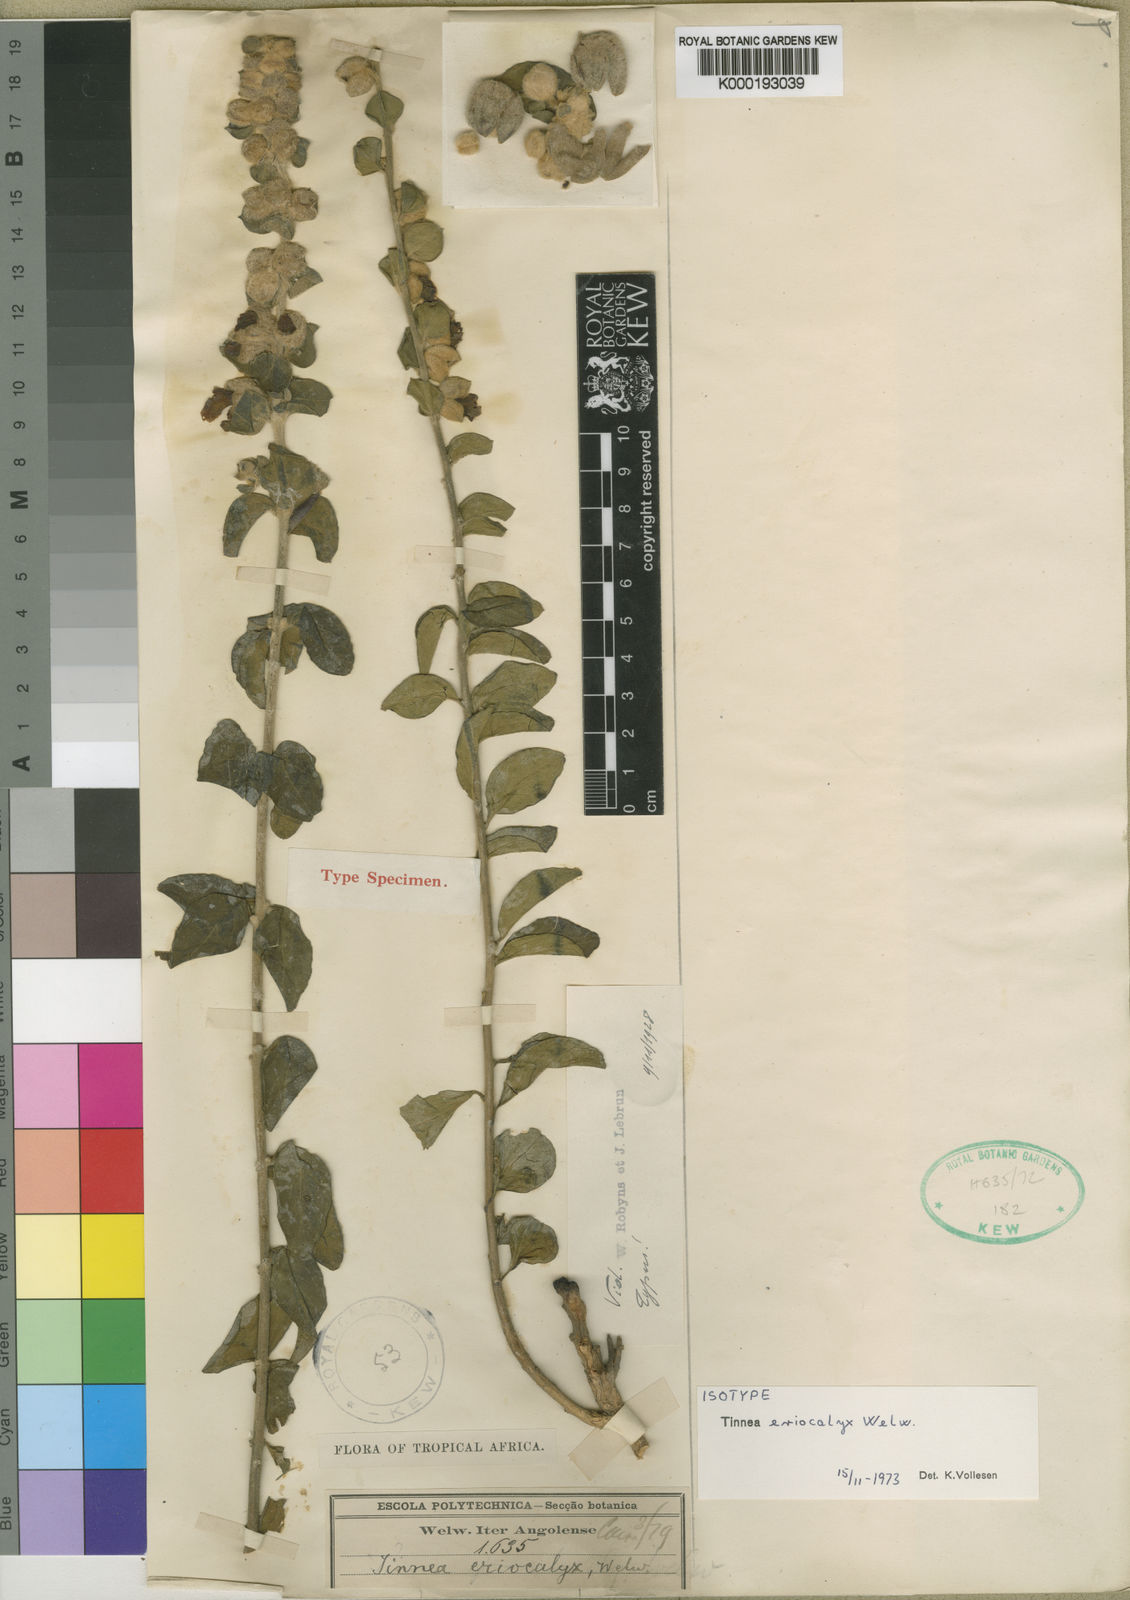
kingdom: Plantae
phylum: Tracheophyta
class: Magnoliopsida
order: Lamiales
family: Lamiaceae
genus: Tinnea
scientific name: Tinnea eriocalyx
